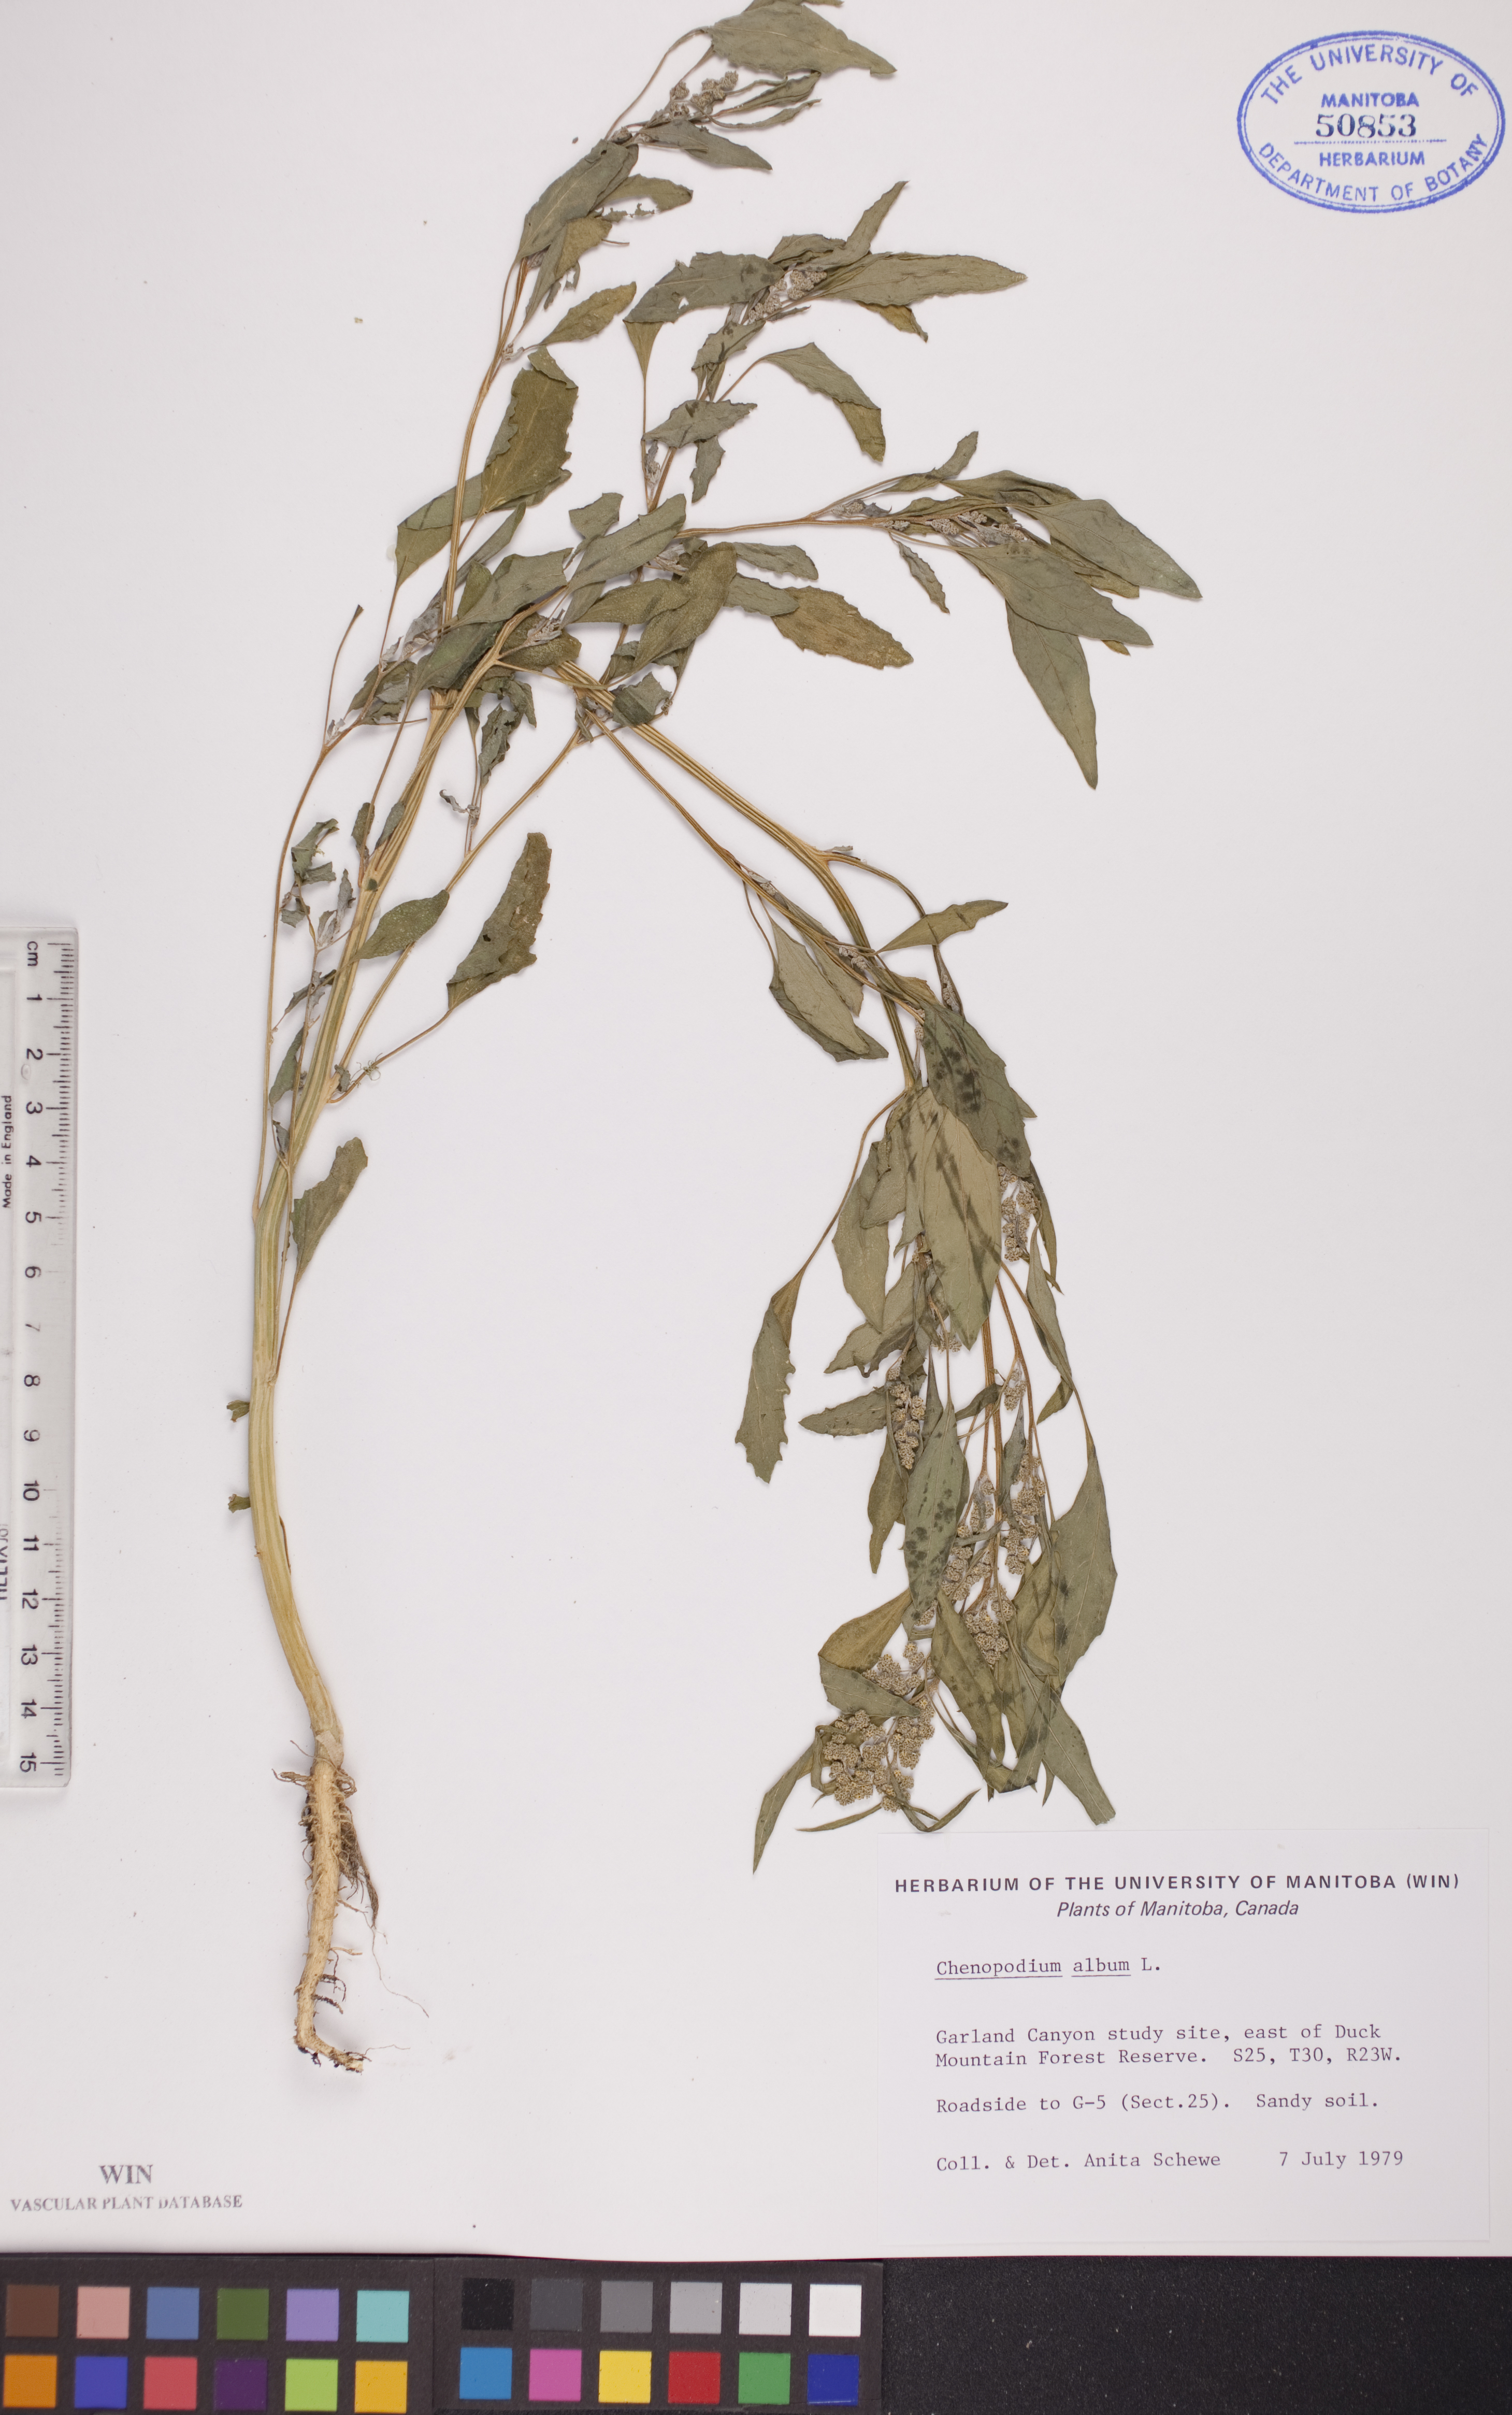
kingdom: Plantae
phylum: Tracheophyta
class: Magnoliopsida
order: Caryophyllales
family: Amaranthaceae
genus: Chenopodium
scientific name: Chenopodium album
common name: Fat-hen
